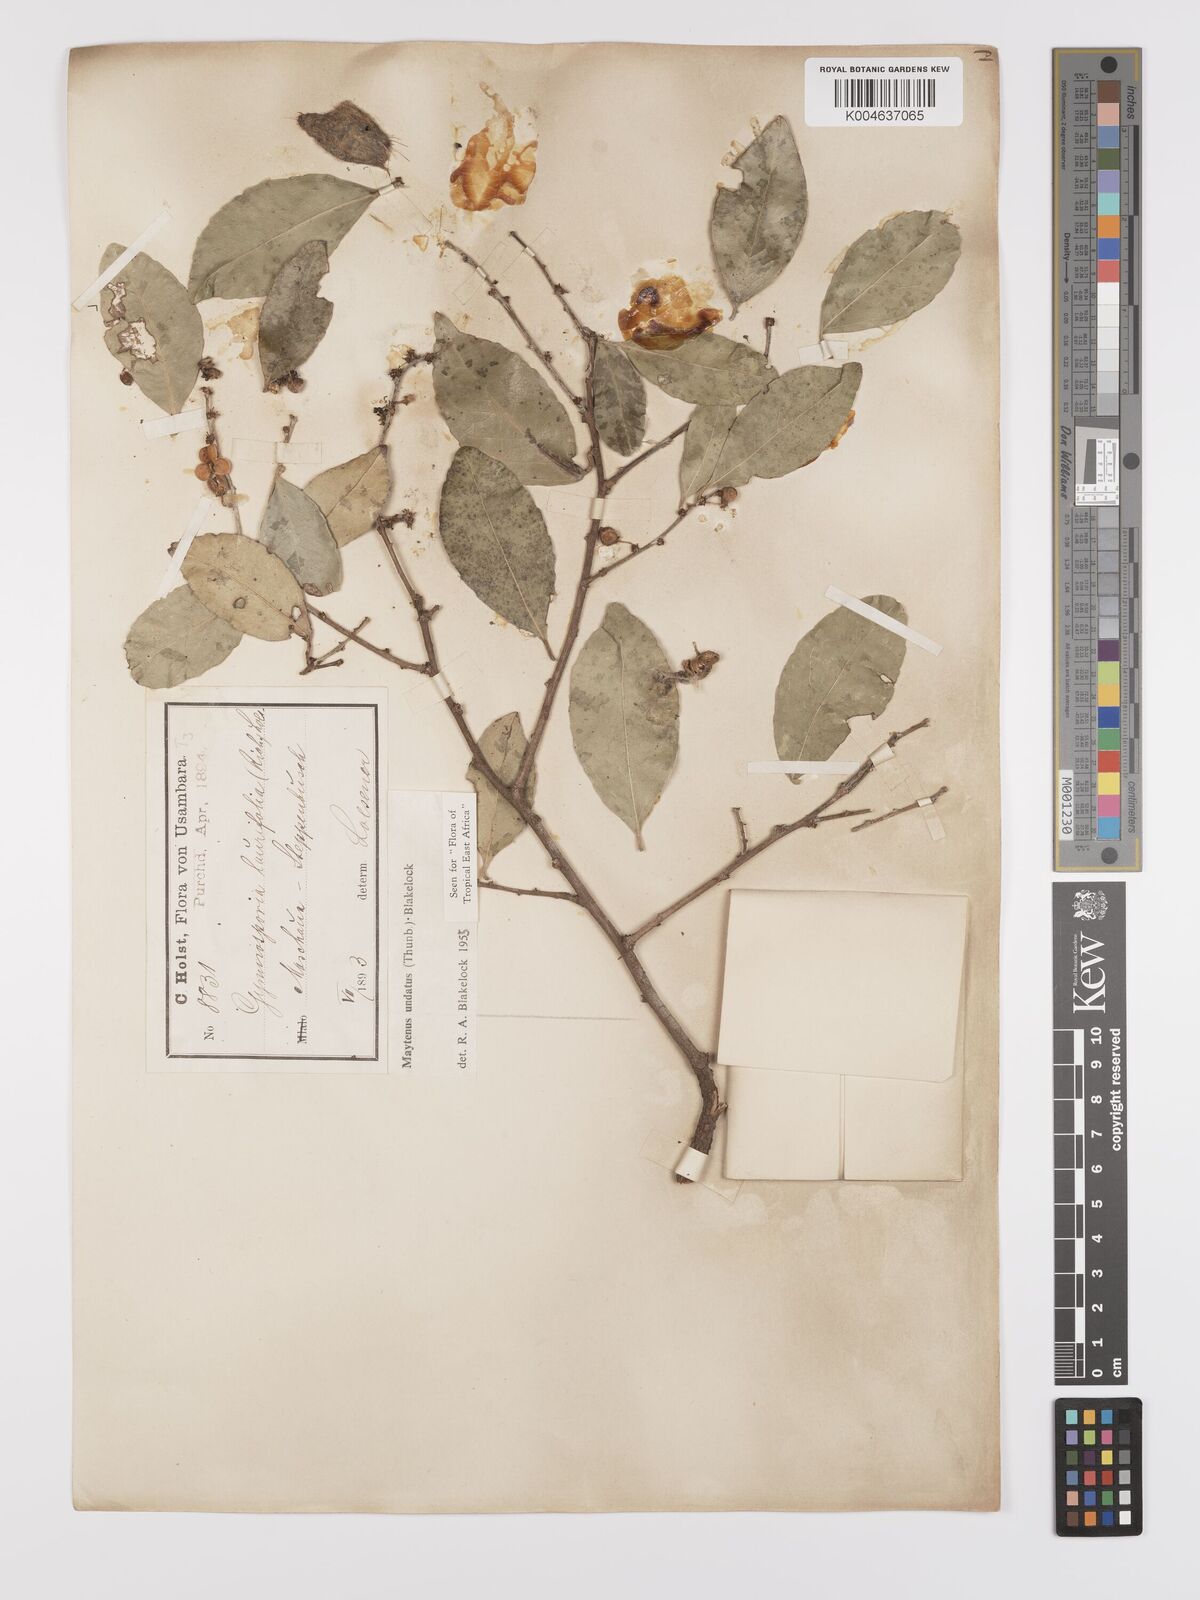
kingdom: Plantae
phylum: Tracheophyta
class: Magnoliopsida
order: Celastrales
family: Celastraceae
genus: Gymnosporia
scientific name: Gymnosporia undata
